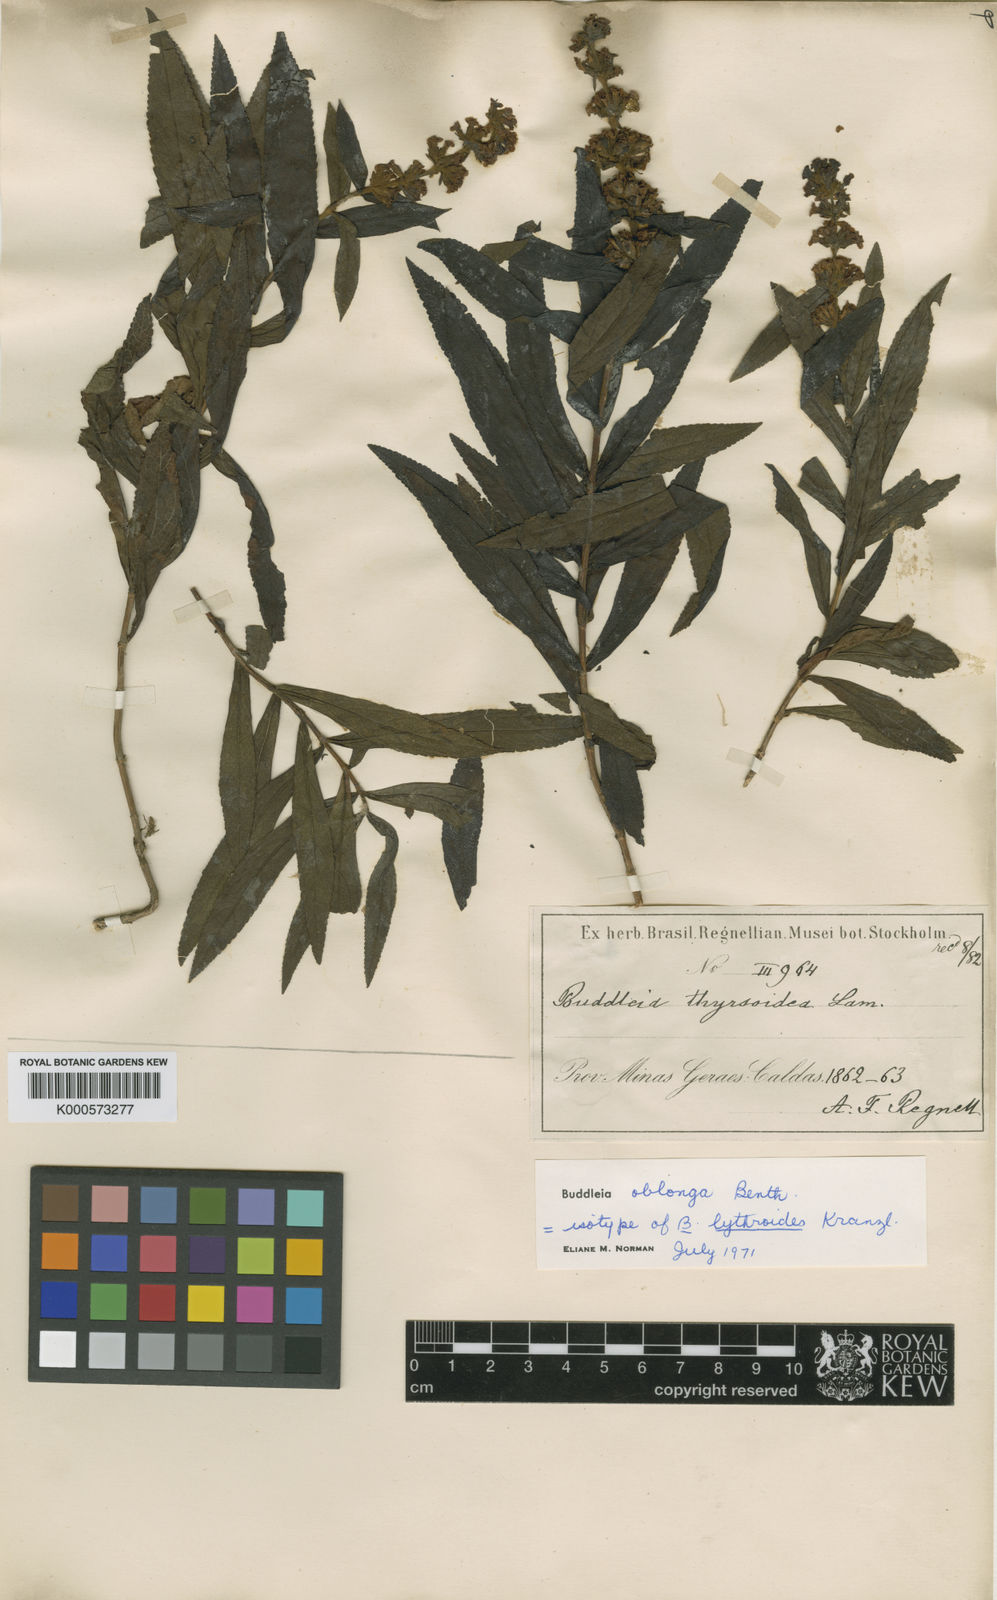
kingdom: Plantae
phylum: Tracheophyta
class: Magnoliopsida
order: Lamiales
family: Scrophulariaceae
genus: Buddleja
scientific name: Buddleja oblonga
